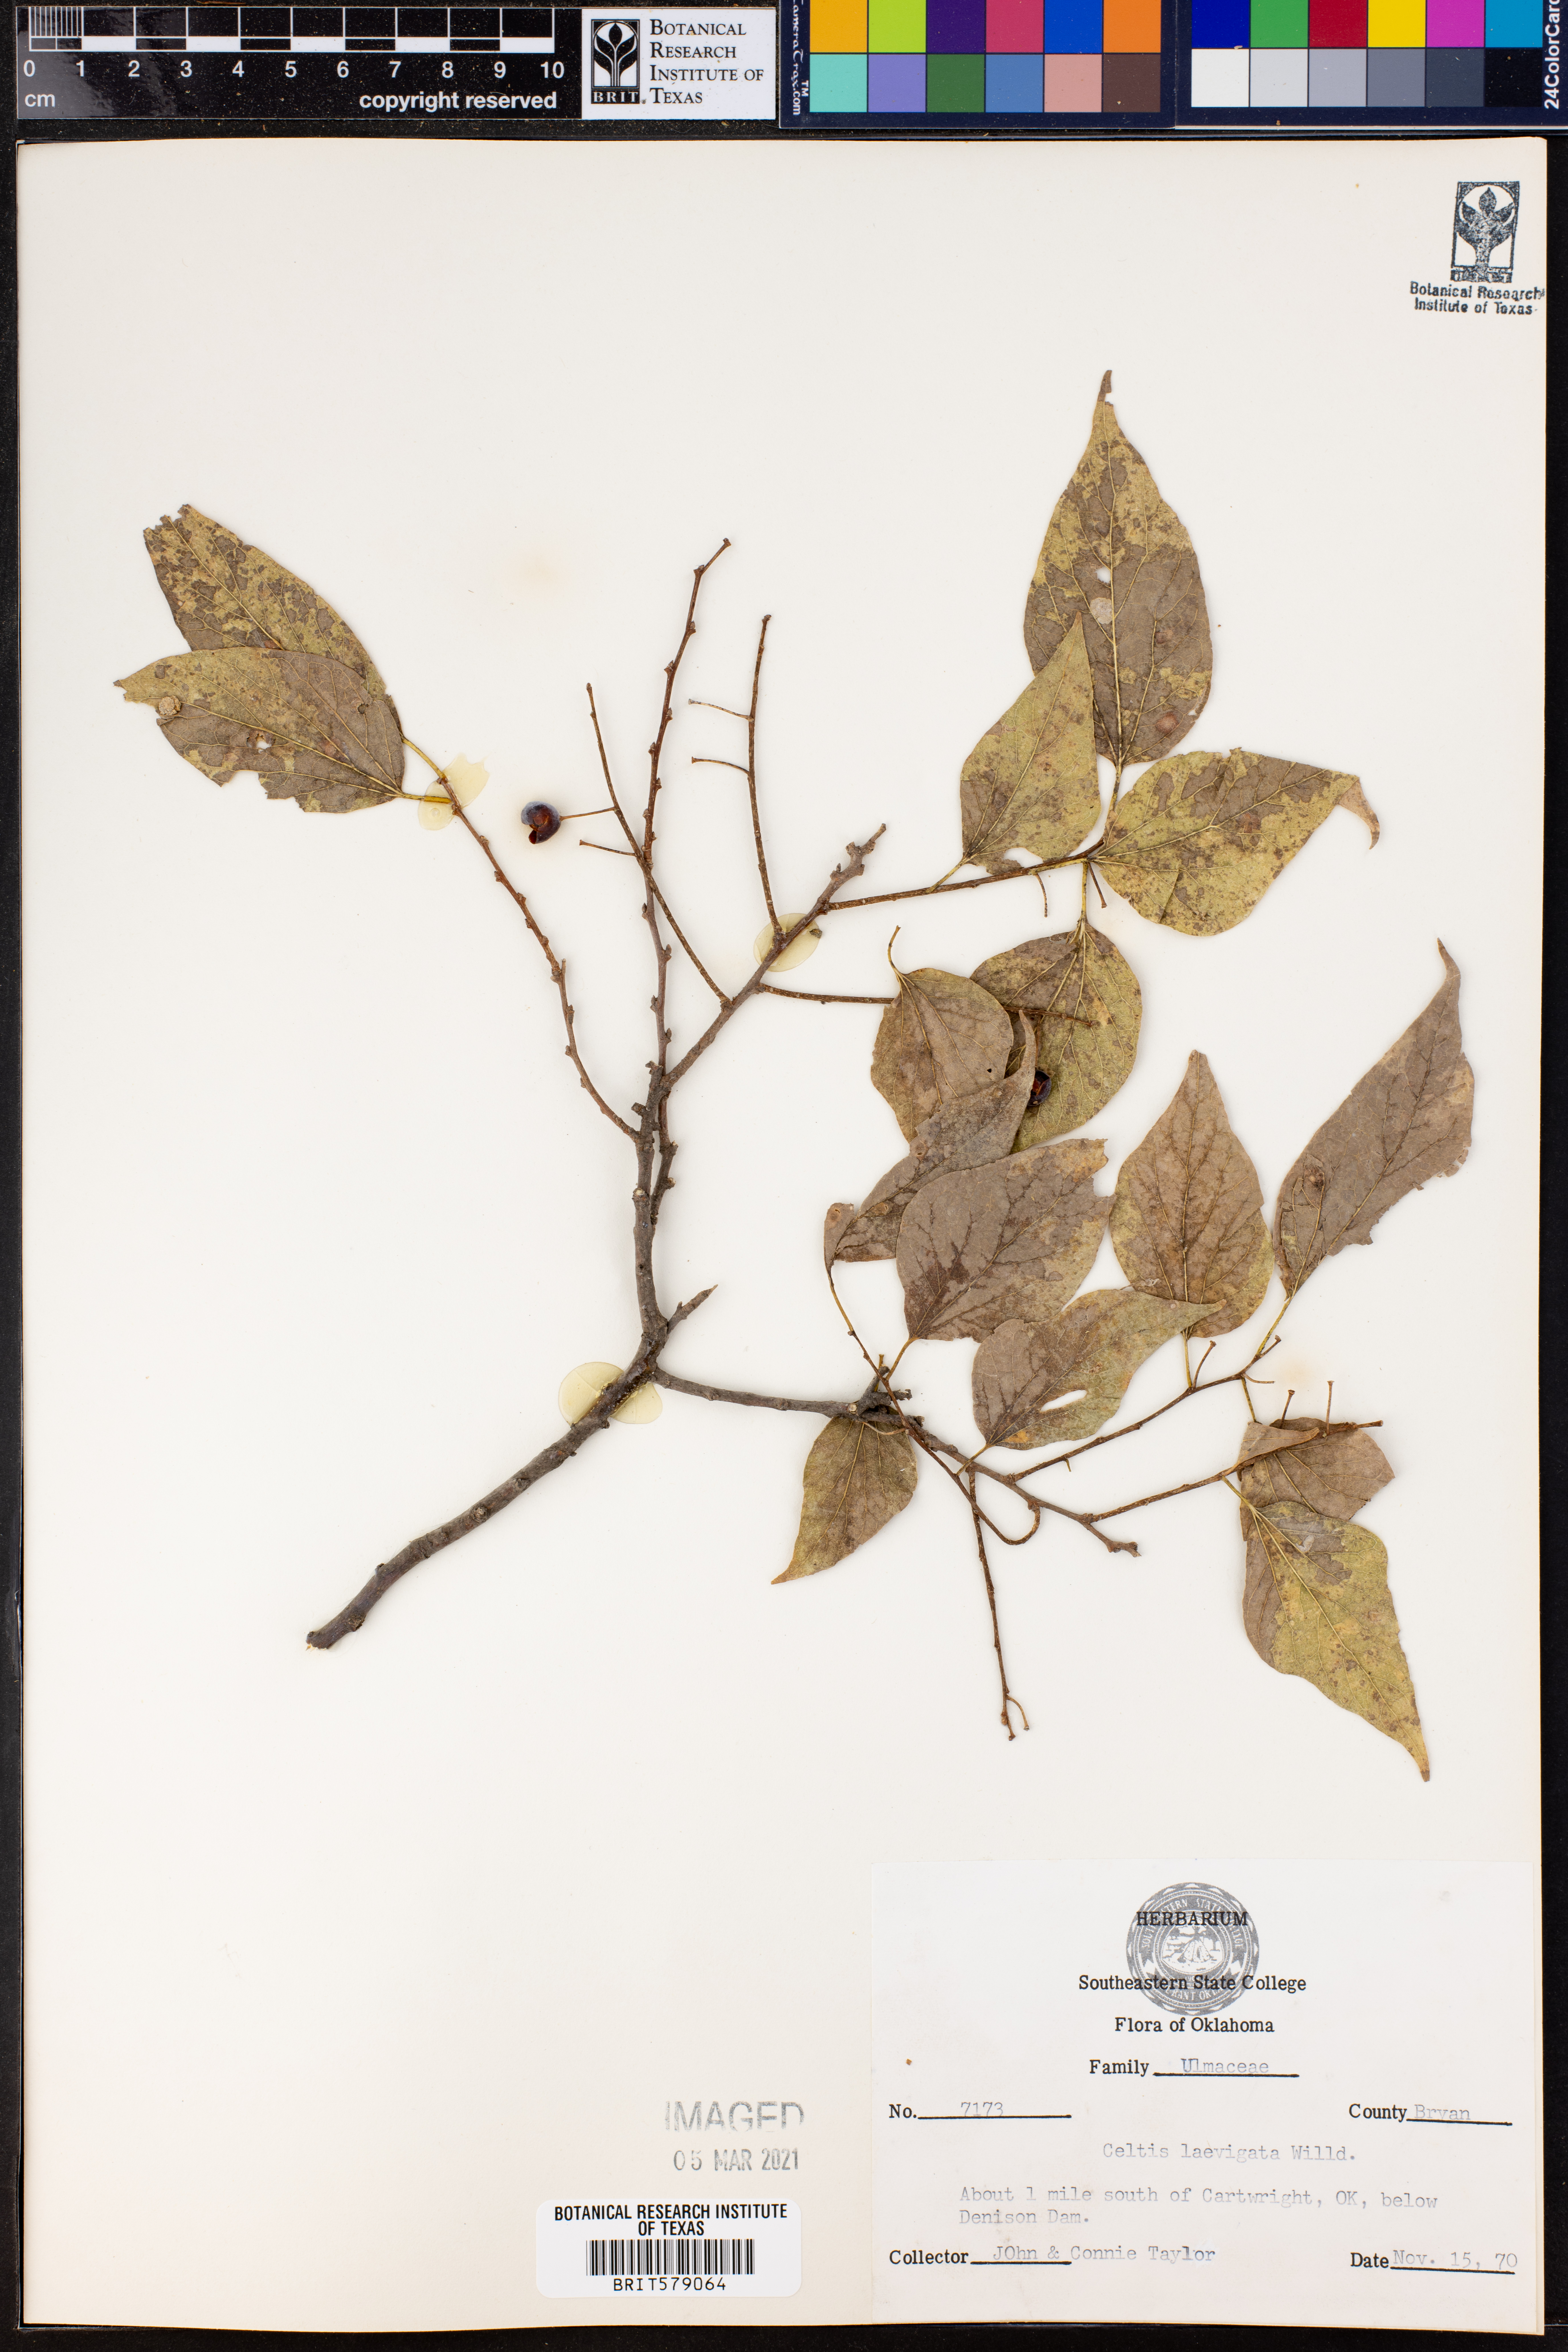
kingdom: Plantae
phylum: Tracheophyta
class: Magnoliopsida
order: Rosales
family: Cannabaceae
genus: Celtis
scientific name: Celtis laevigata
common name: Sugarberry
